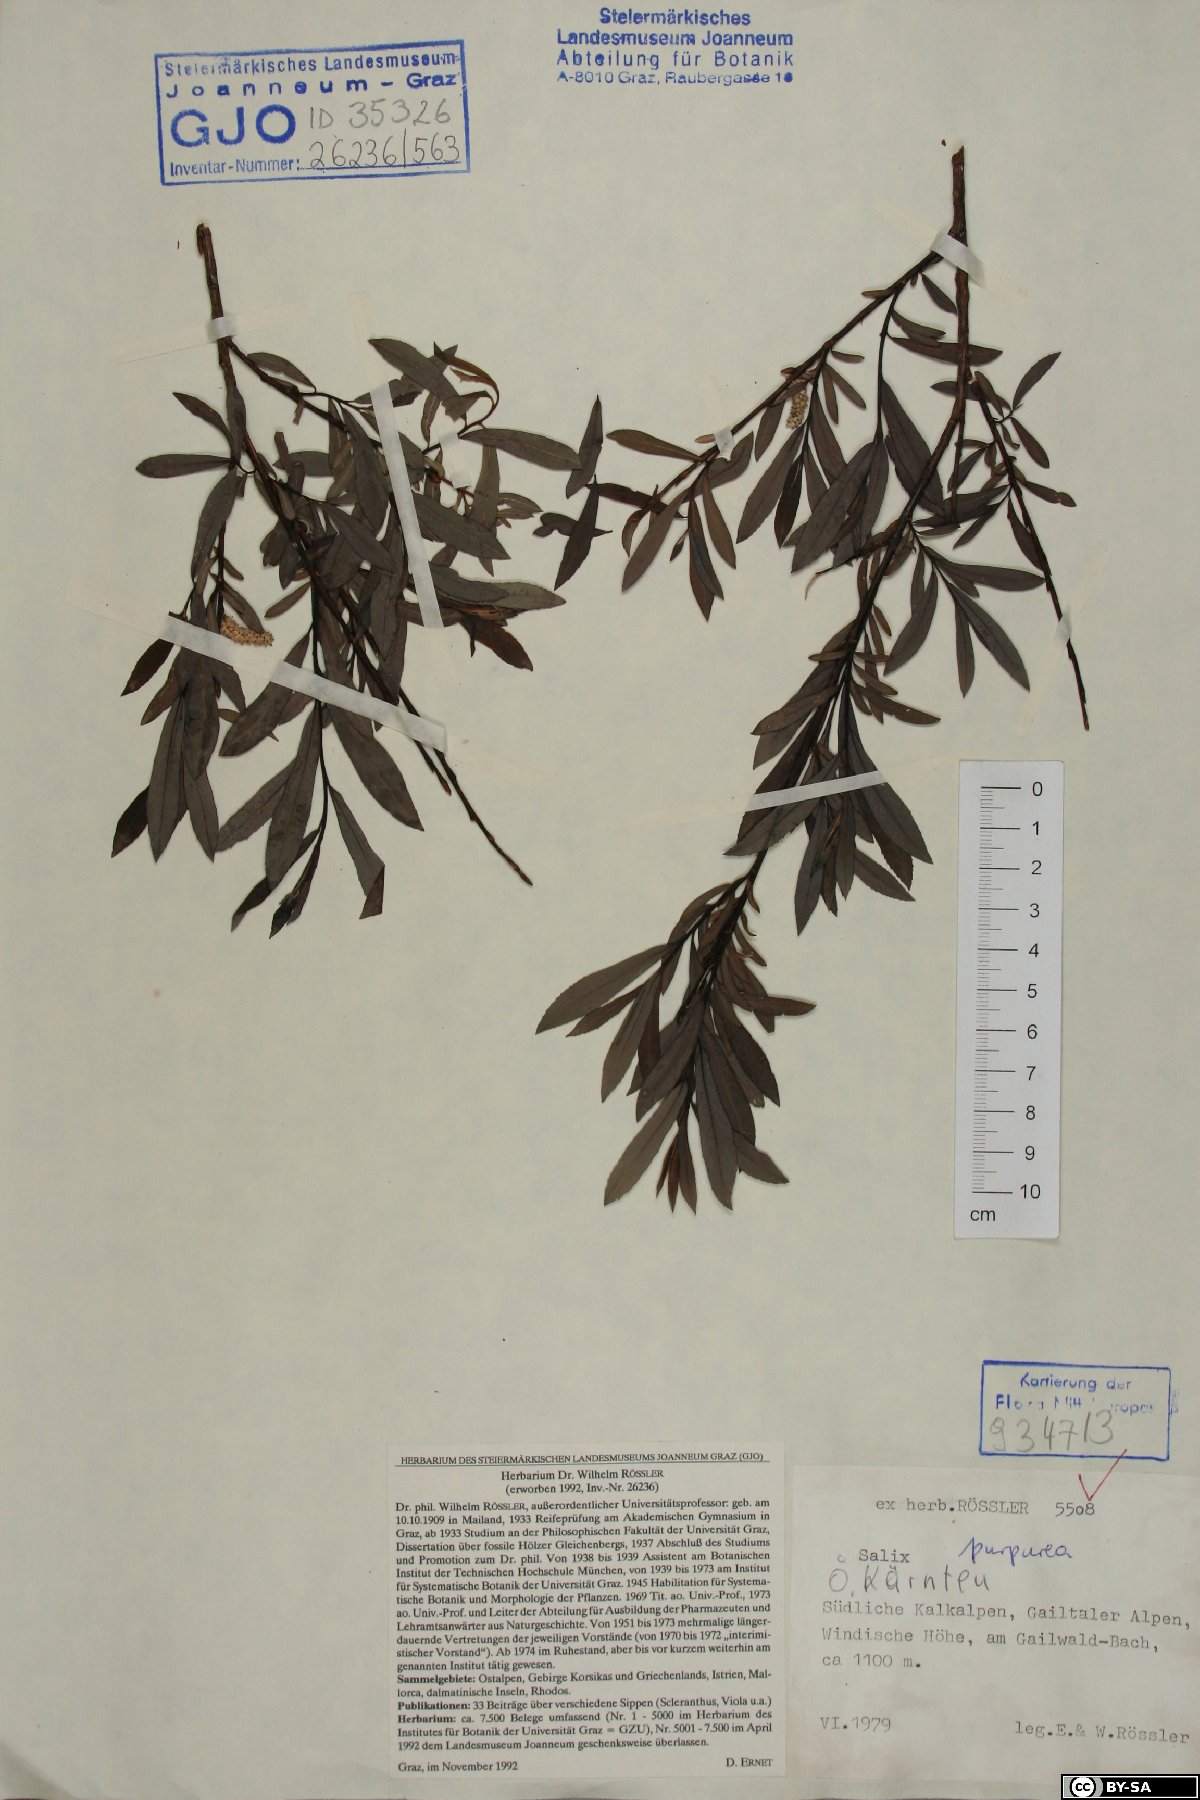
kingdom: Plantae
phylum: Tracheophyta
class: Magnoliopsida
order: Malpighiales
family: Salicaceae
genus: Salix
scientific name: Salix purpurea
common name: Purple willow
